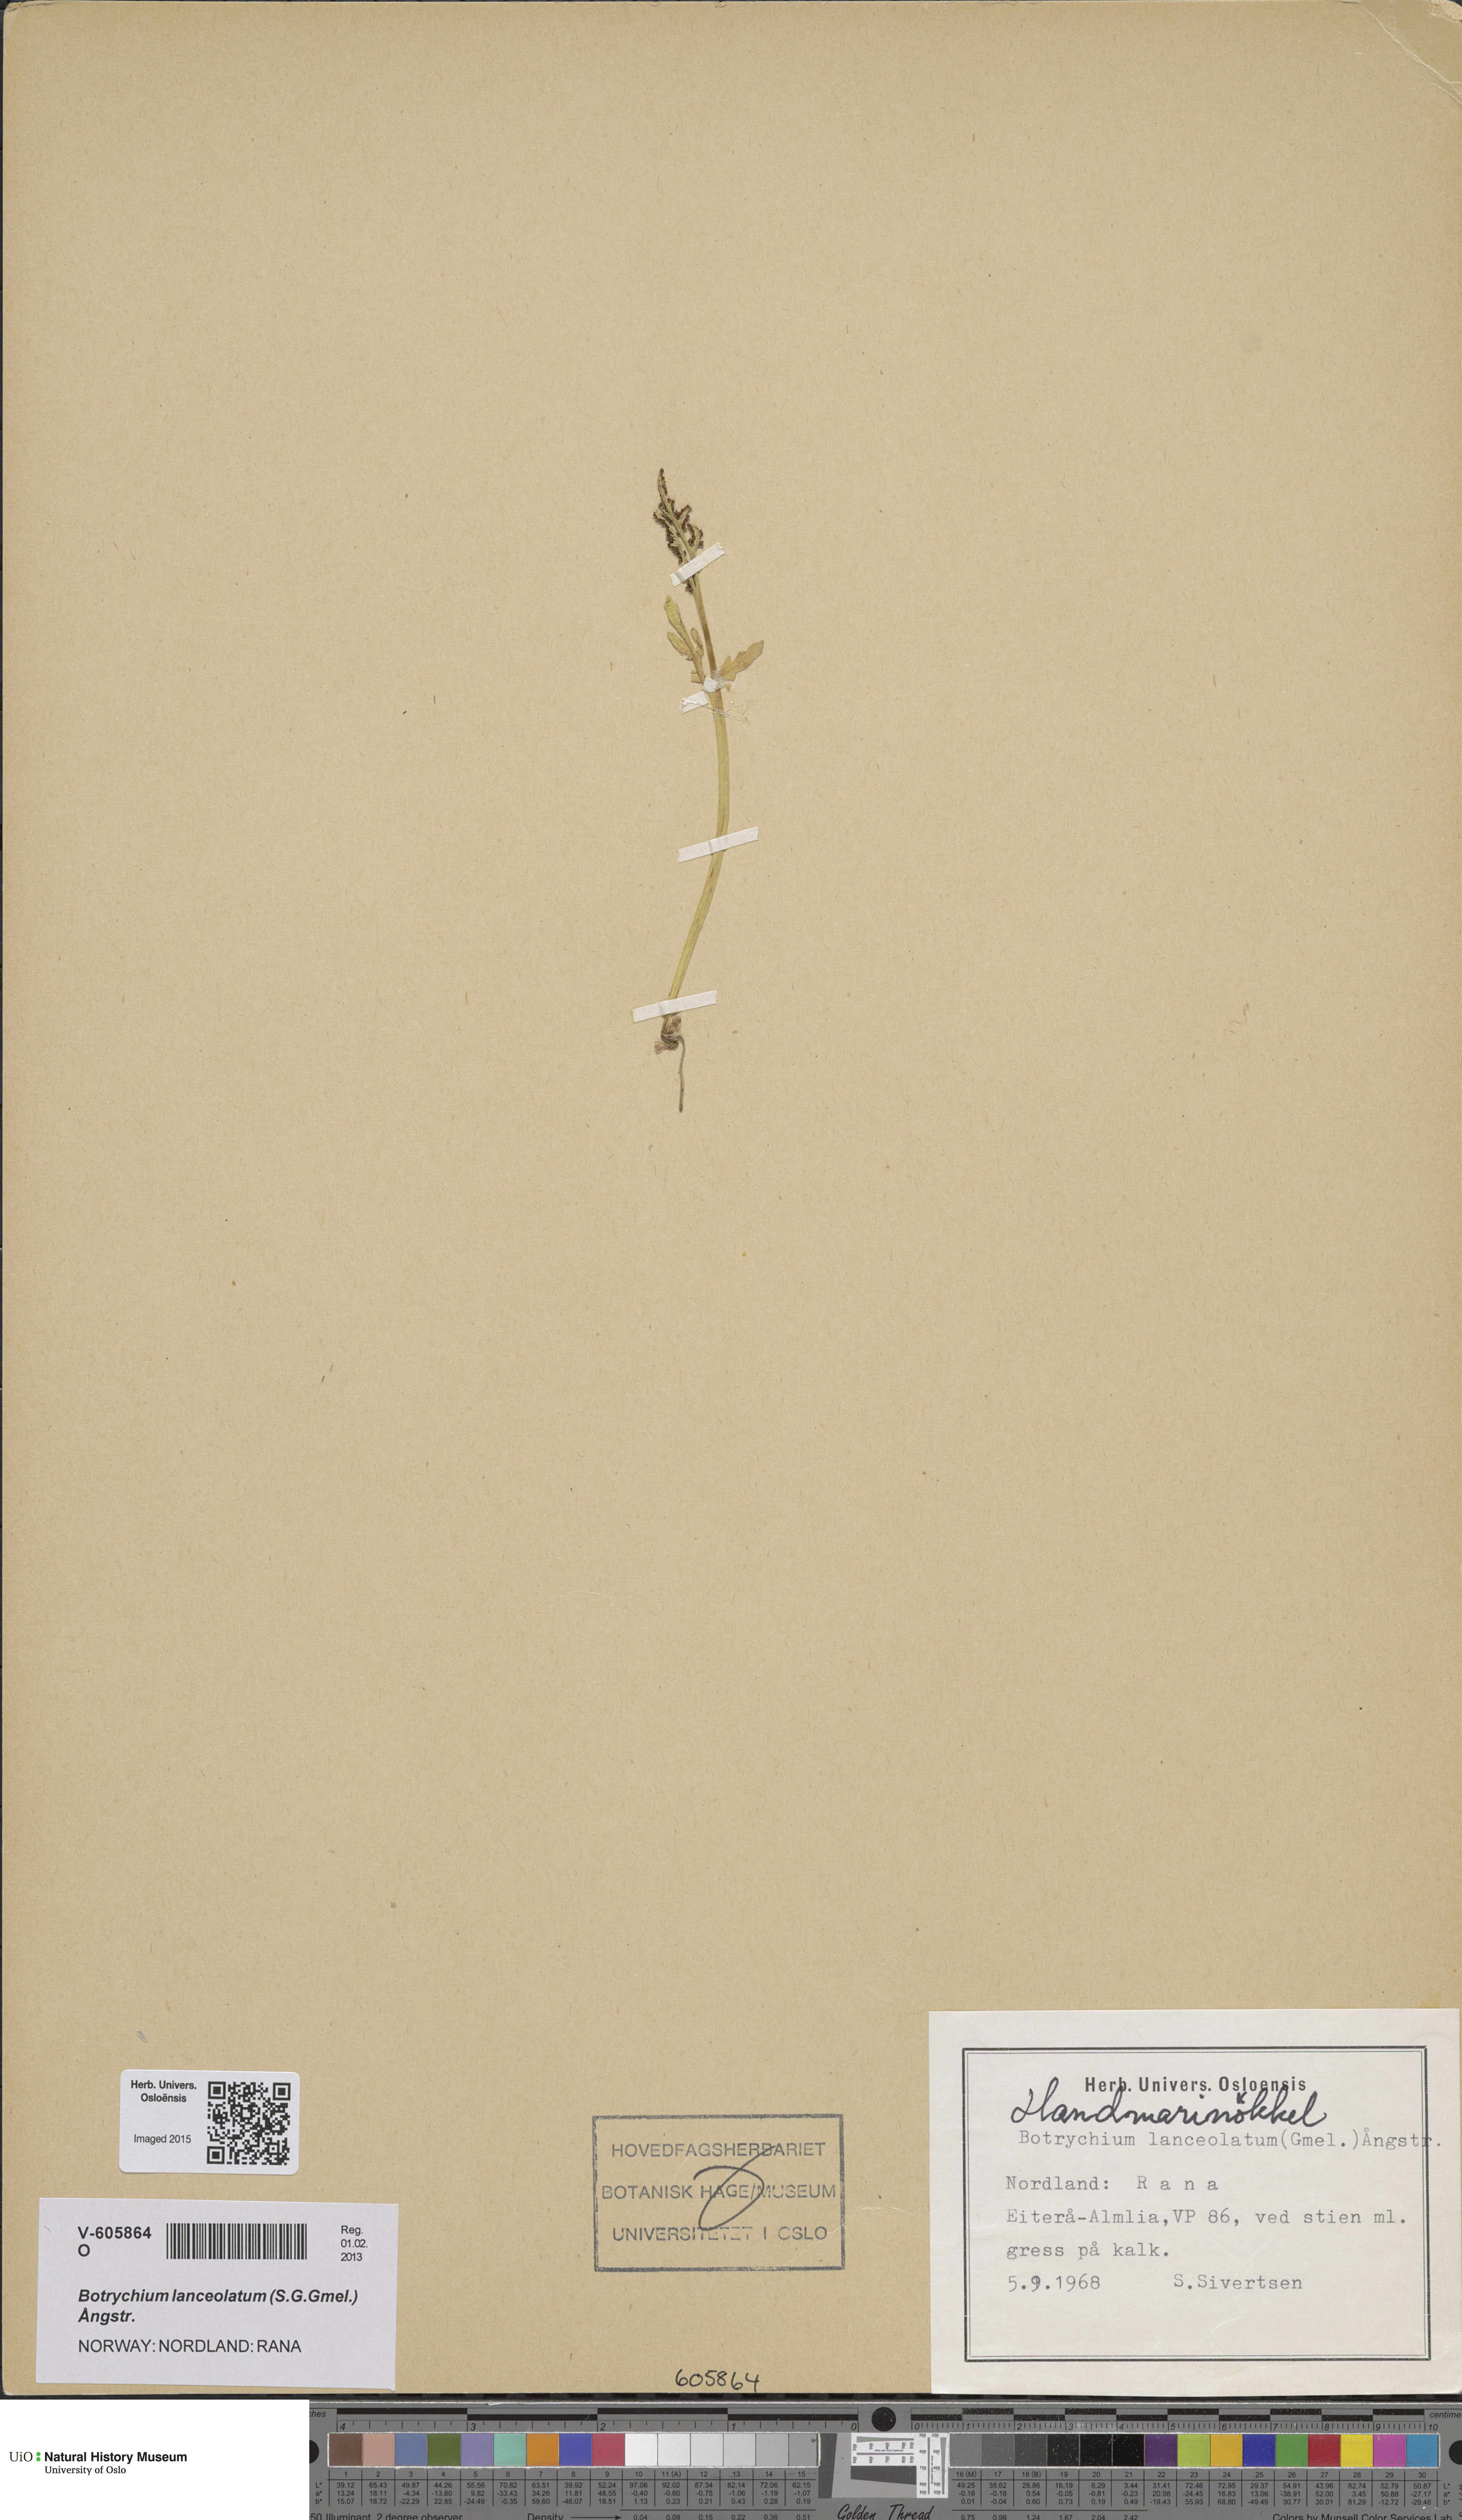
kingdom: Plantae
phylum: Tracheophyta
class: Polypodiopsida
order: Ophioglossales
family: Ophioglossaceae
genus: Botrychium
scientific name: Botrychium lanceolatum
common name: Lance-leaved moonwort
